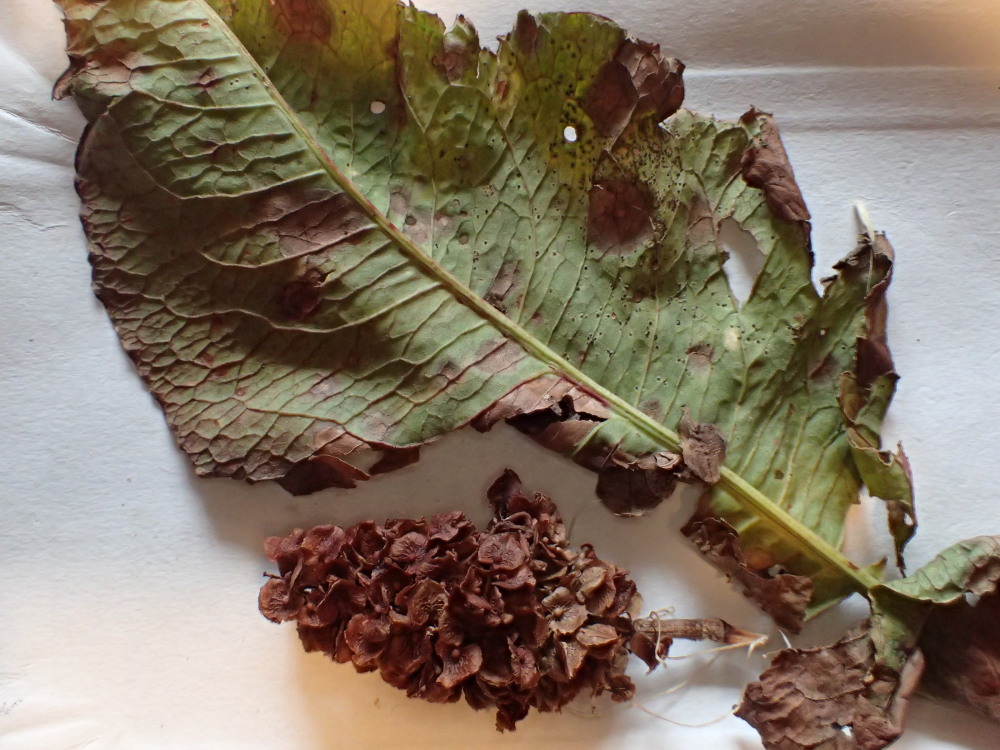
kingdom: Fungi
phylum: Basidiomycota
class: Pucciniomycetes
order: Pucciniales
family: Pucciniaceae
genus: Uromyces
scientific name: Uromyces rumicis
